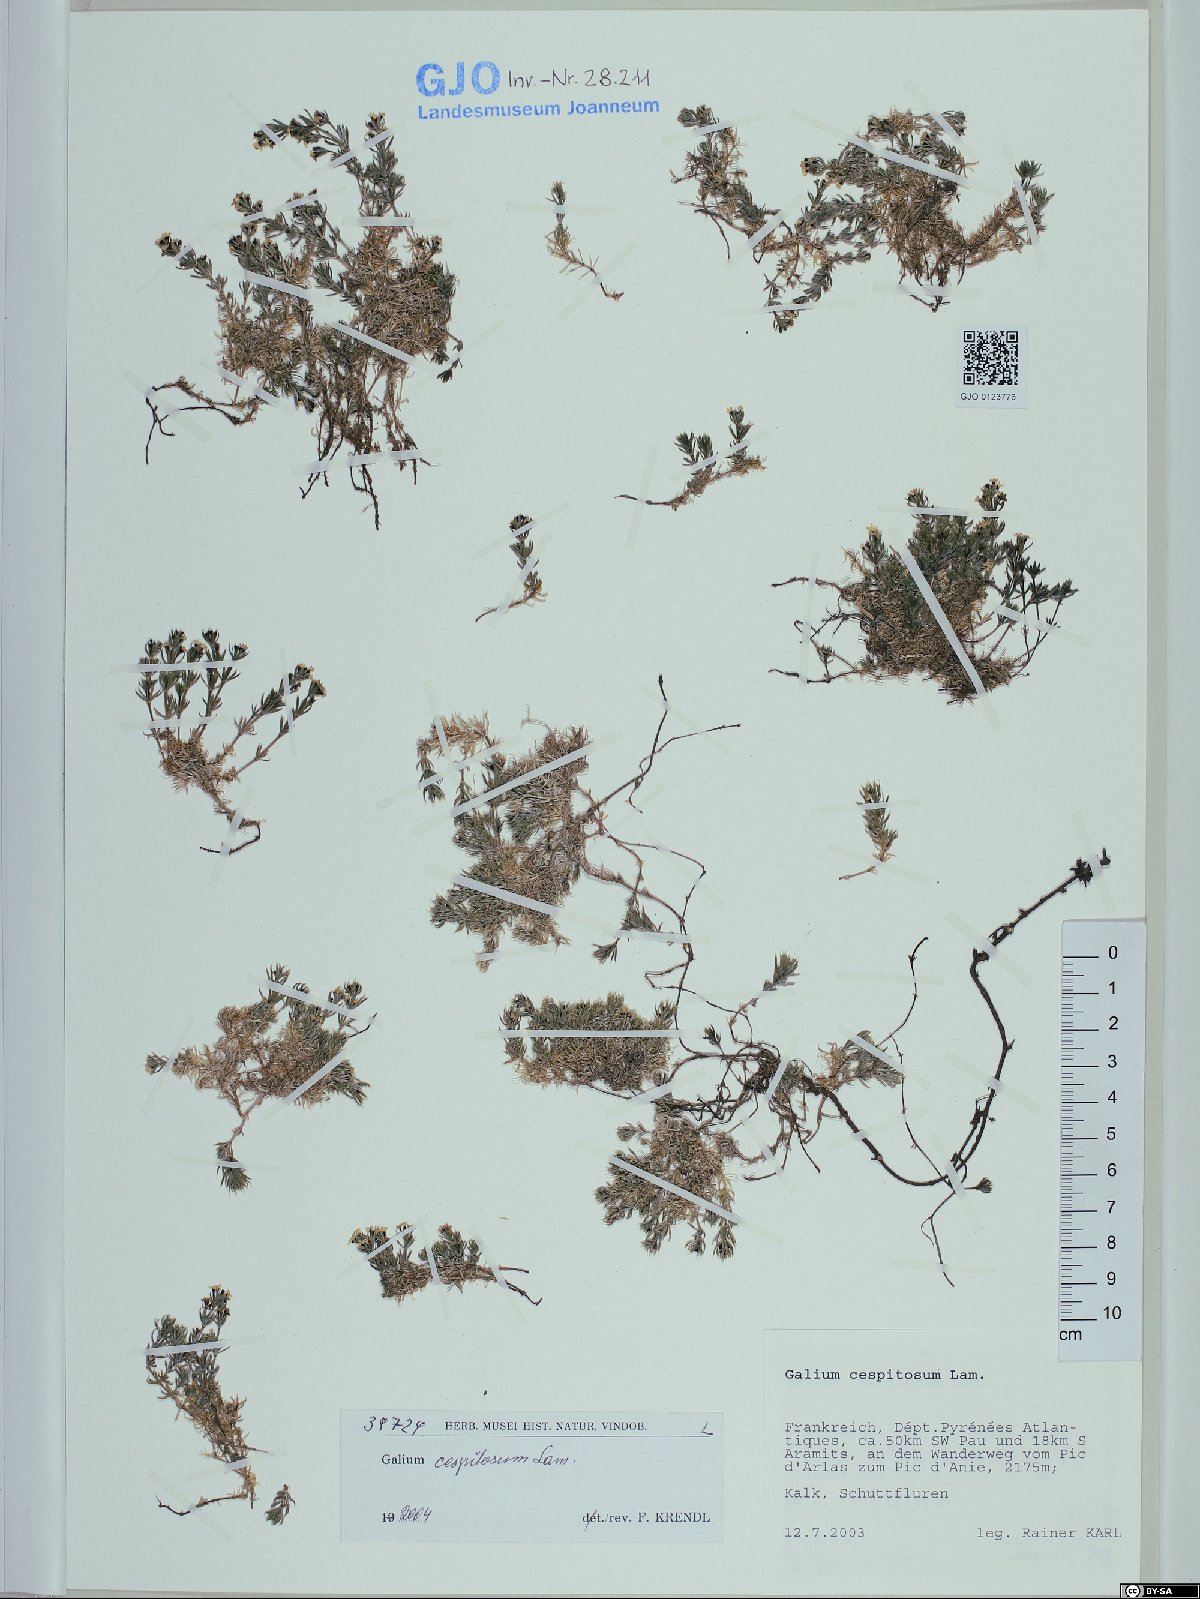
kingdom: Plantae
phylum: Tracheophyta
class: Magnoliopsida
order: Gentianales
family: Rubiaceae
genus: Galium
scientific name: Galium cespitosum
